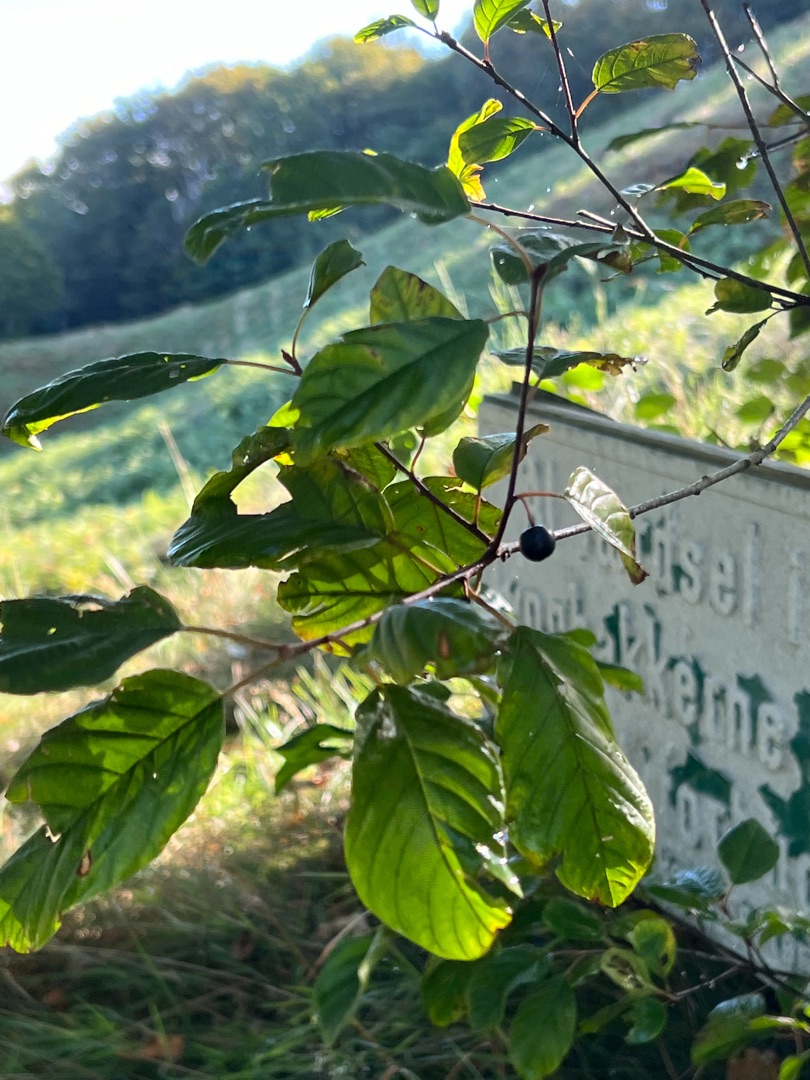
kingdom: Plantae
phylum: Tracheophyta
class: Magnoliopsida
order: Rosales
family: Rhamnaceae
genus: Frangula
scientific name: Frangula alnus
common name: Tørst
